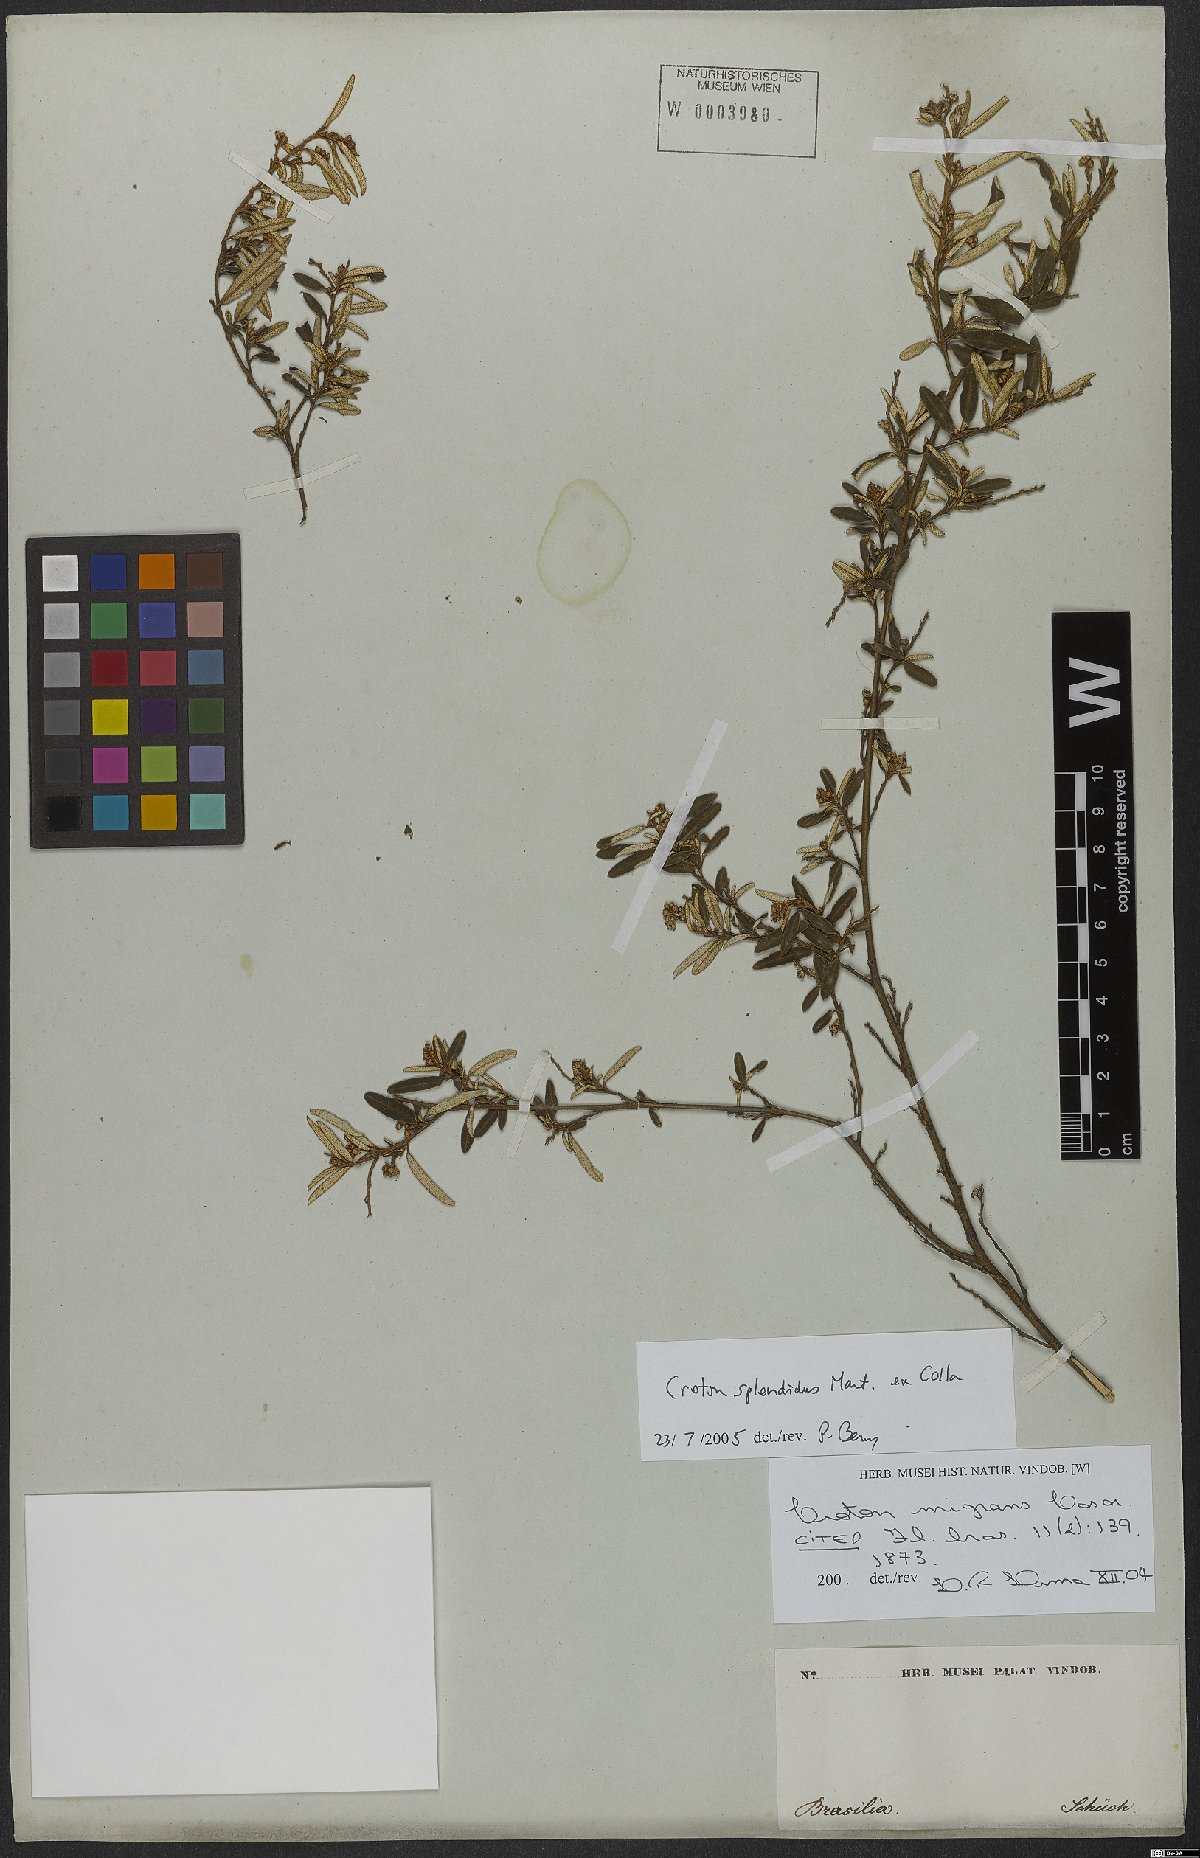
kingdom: Plantae
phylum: Tracheophyta
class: Magnoliopsida
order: Malpighiales
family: Euphorbiaceae
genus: Croton
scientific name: Croton splendidus
